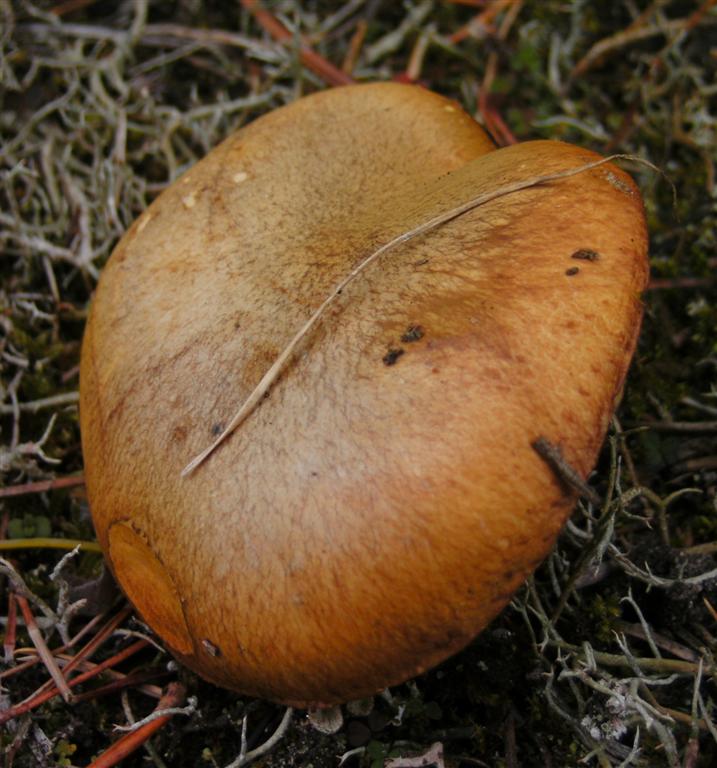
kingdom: Fungi
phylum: Basidiomycota
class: Agaricomycetes
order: Boletales
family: Suillaceae
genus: Suillus
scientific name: Suillus granulatus
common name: kornet slimrørhat
